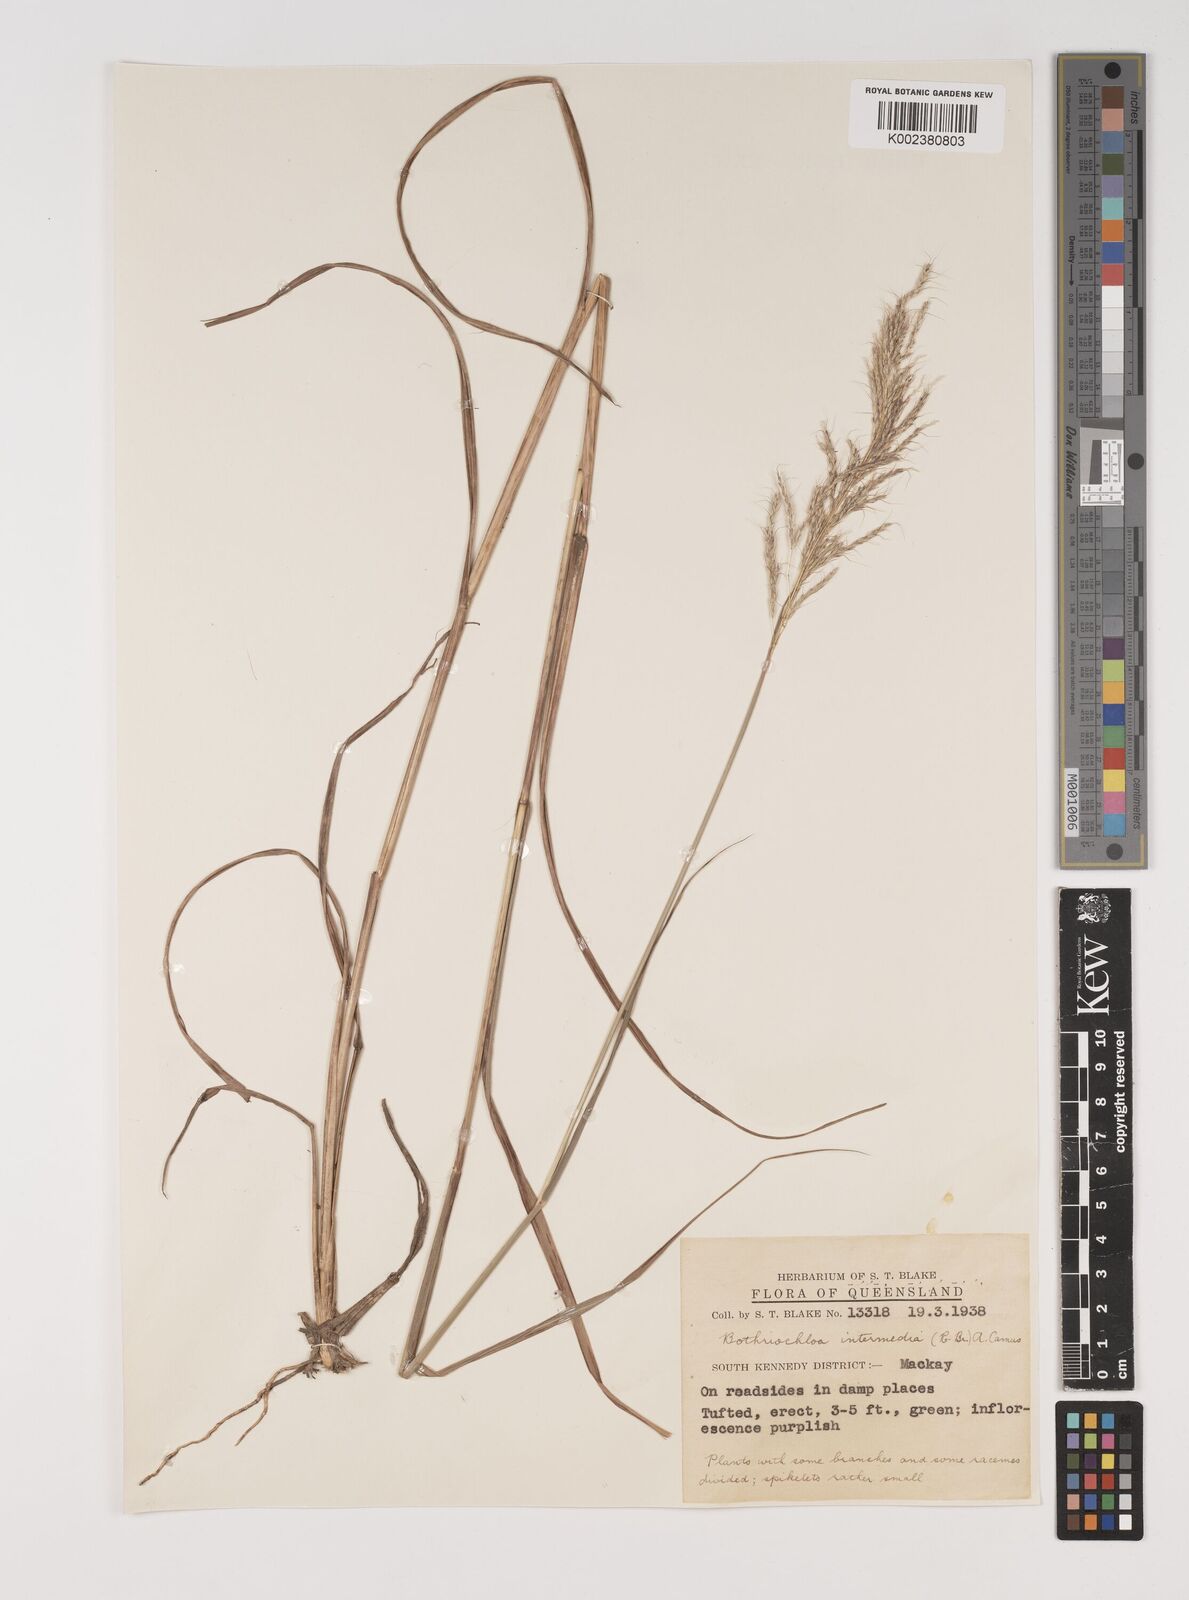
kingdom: Plantae
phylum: Tracheophyta
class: Liliopsida
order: Poales
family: Poaceae
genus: Bothriochloa
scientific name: Bothriochloa bladhii
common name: Caucasian bluestem
